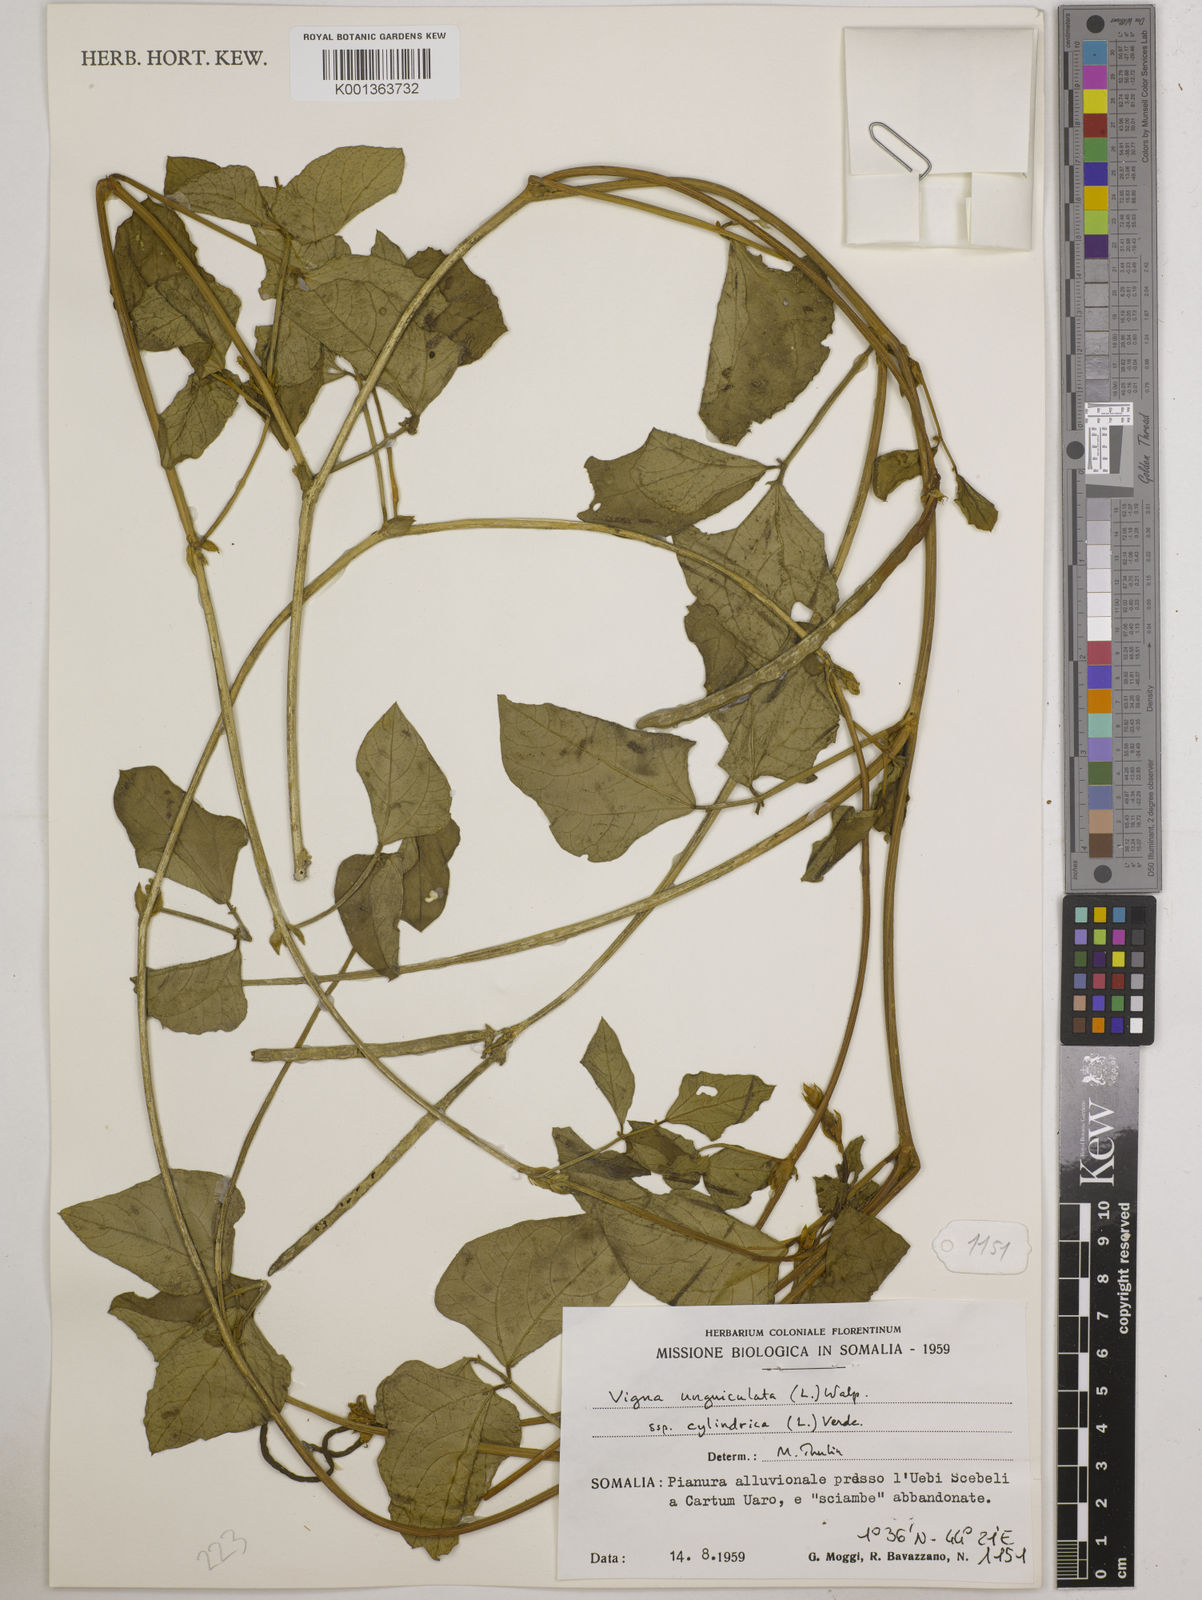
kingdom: Plantae
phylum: Tracheophyta
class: Magnoliopsida
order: Fabales
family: Fabaceae
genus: Vigna
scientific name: Vigna unguiculata
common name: Cowpea
